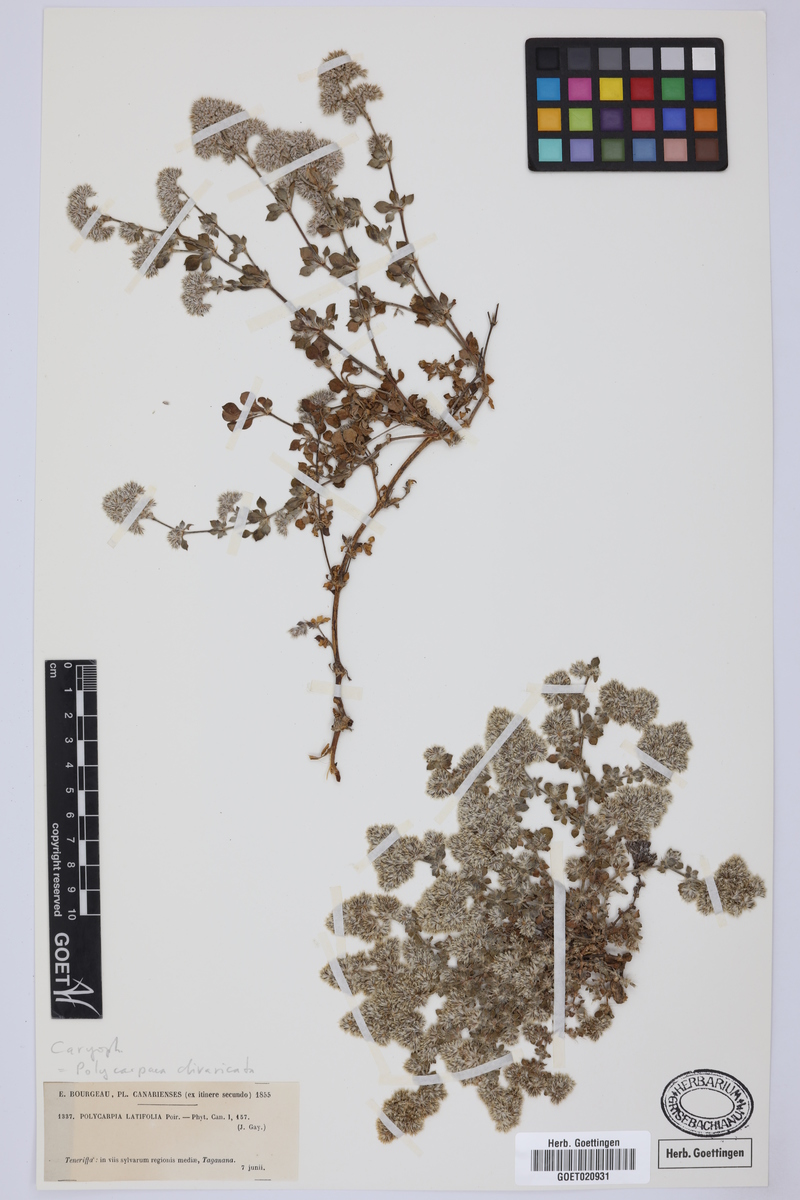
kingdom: Plantae
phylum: Tracheophyta
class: Magnoliopsida
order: Caryophyllales
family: Caryophyllaceae
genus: Polycarpaea
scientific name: Polycarpaea divaricata
